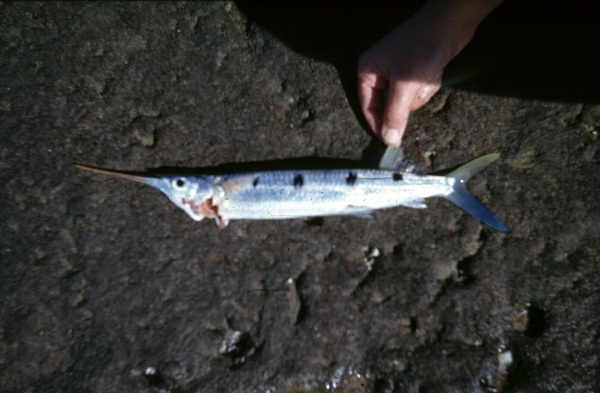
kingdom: Animalia
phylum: Chordata
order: Beloniformes
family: Hemiramphidae
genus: Hemiramphus
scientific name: Hemiramphus far
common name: Black-barred halfbeak
